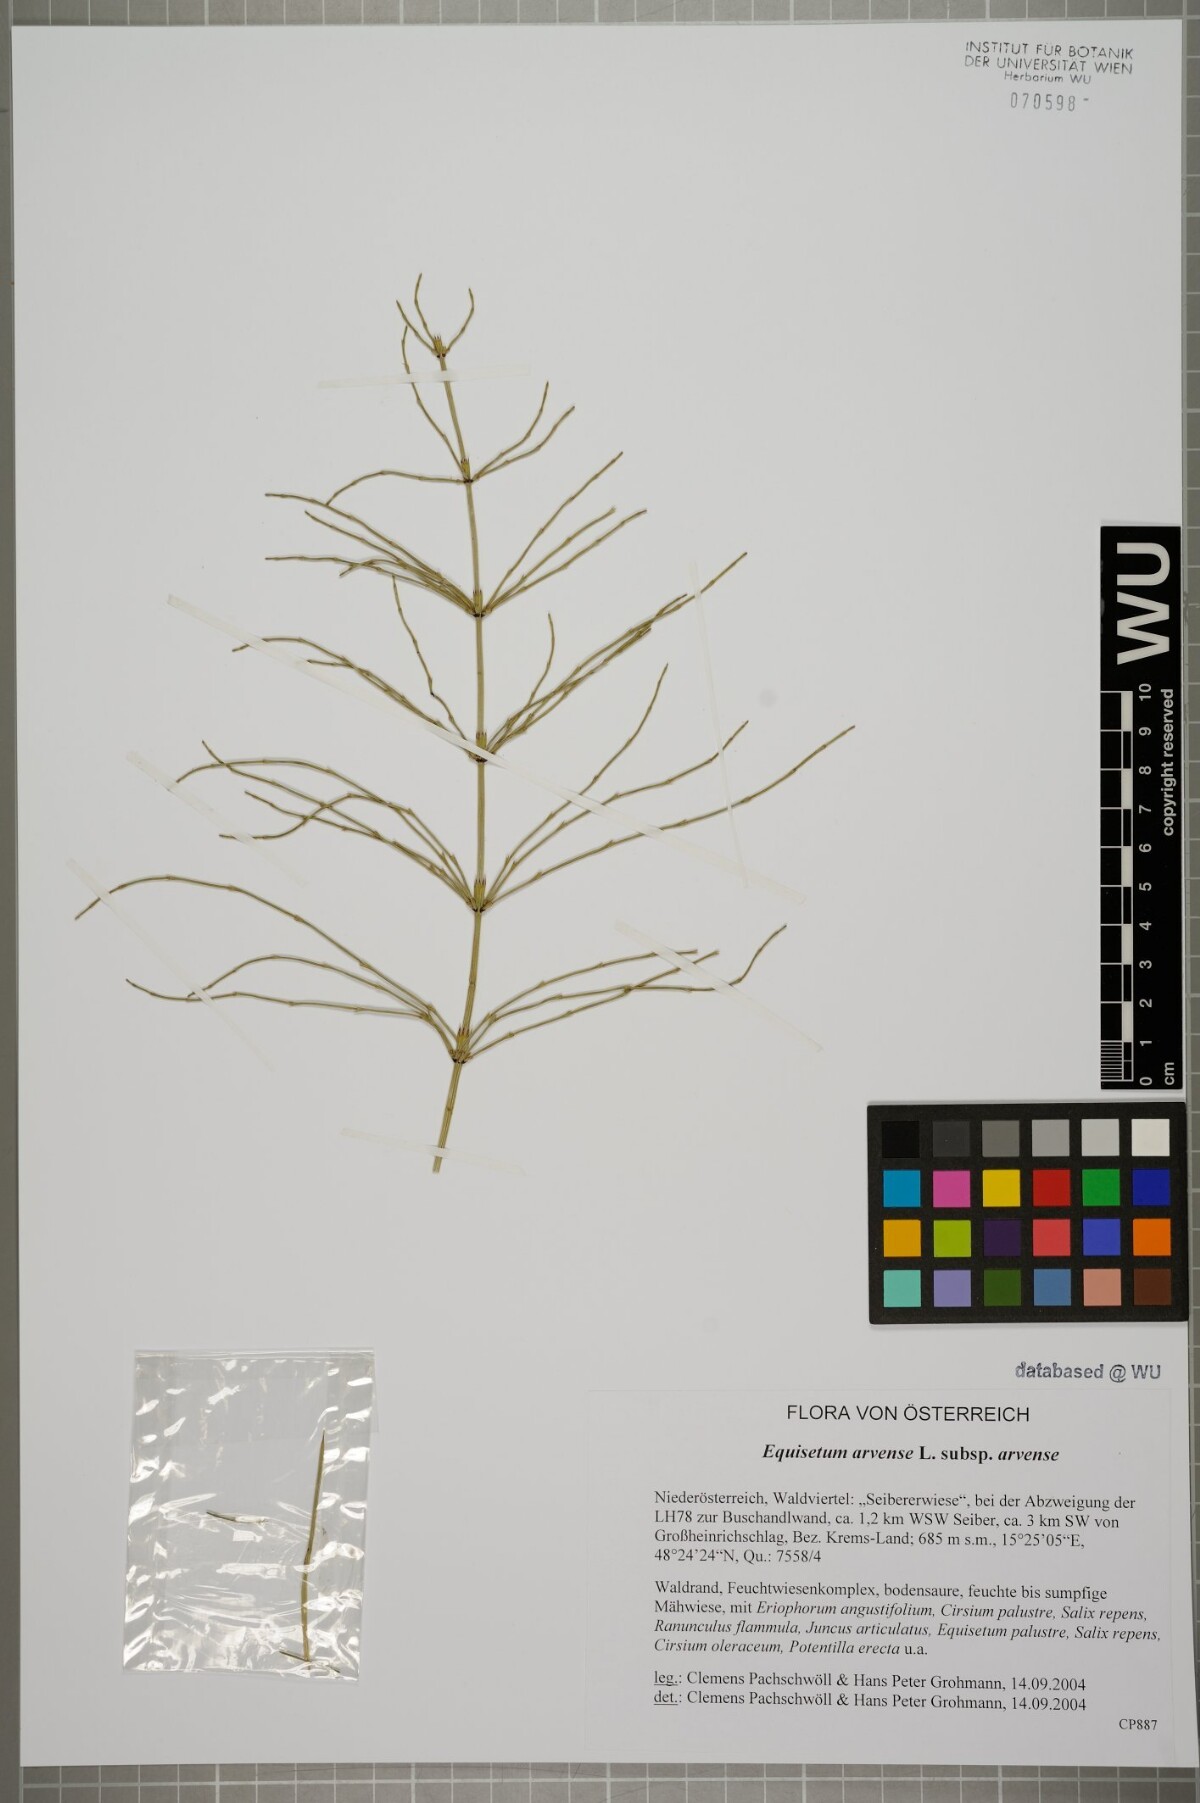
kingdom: Plantae
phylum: Tracheophyta
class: Polypodiopsida
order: Equisetales
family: Equisetaceae
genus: Equisetum
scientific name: Equisetum arvense
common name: Field horsetail
